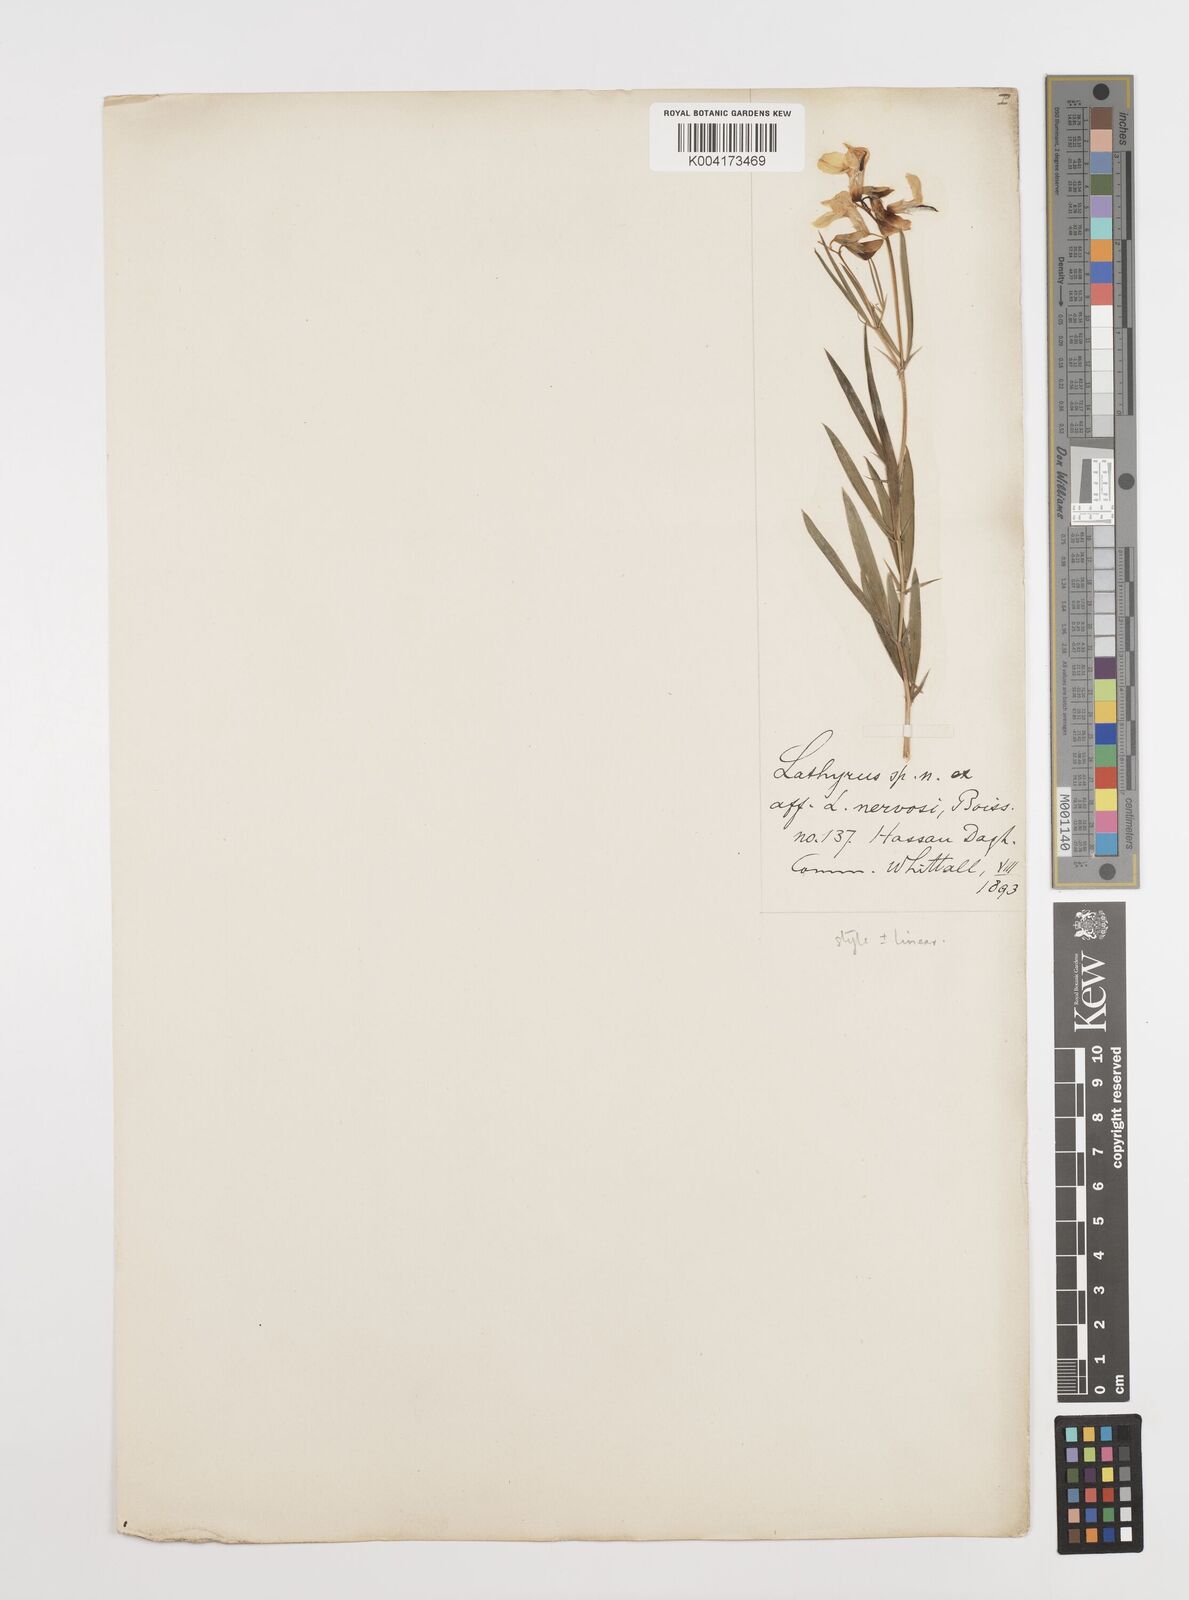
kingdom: Plantae
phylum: Tracheophyta
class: Magnoliopsida
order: Fabales
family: Fabaceae
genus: Lathyrus
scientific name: Lathyrus brachypterus
